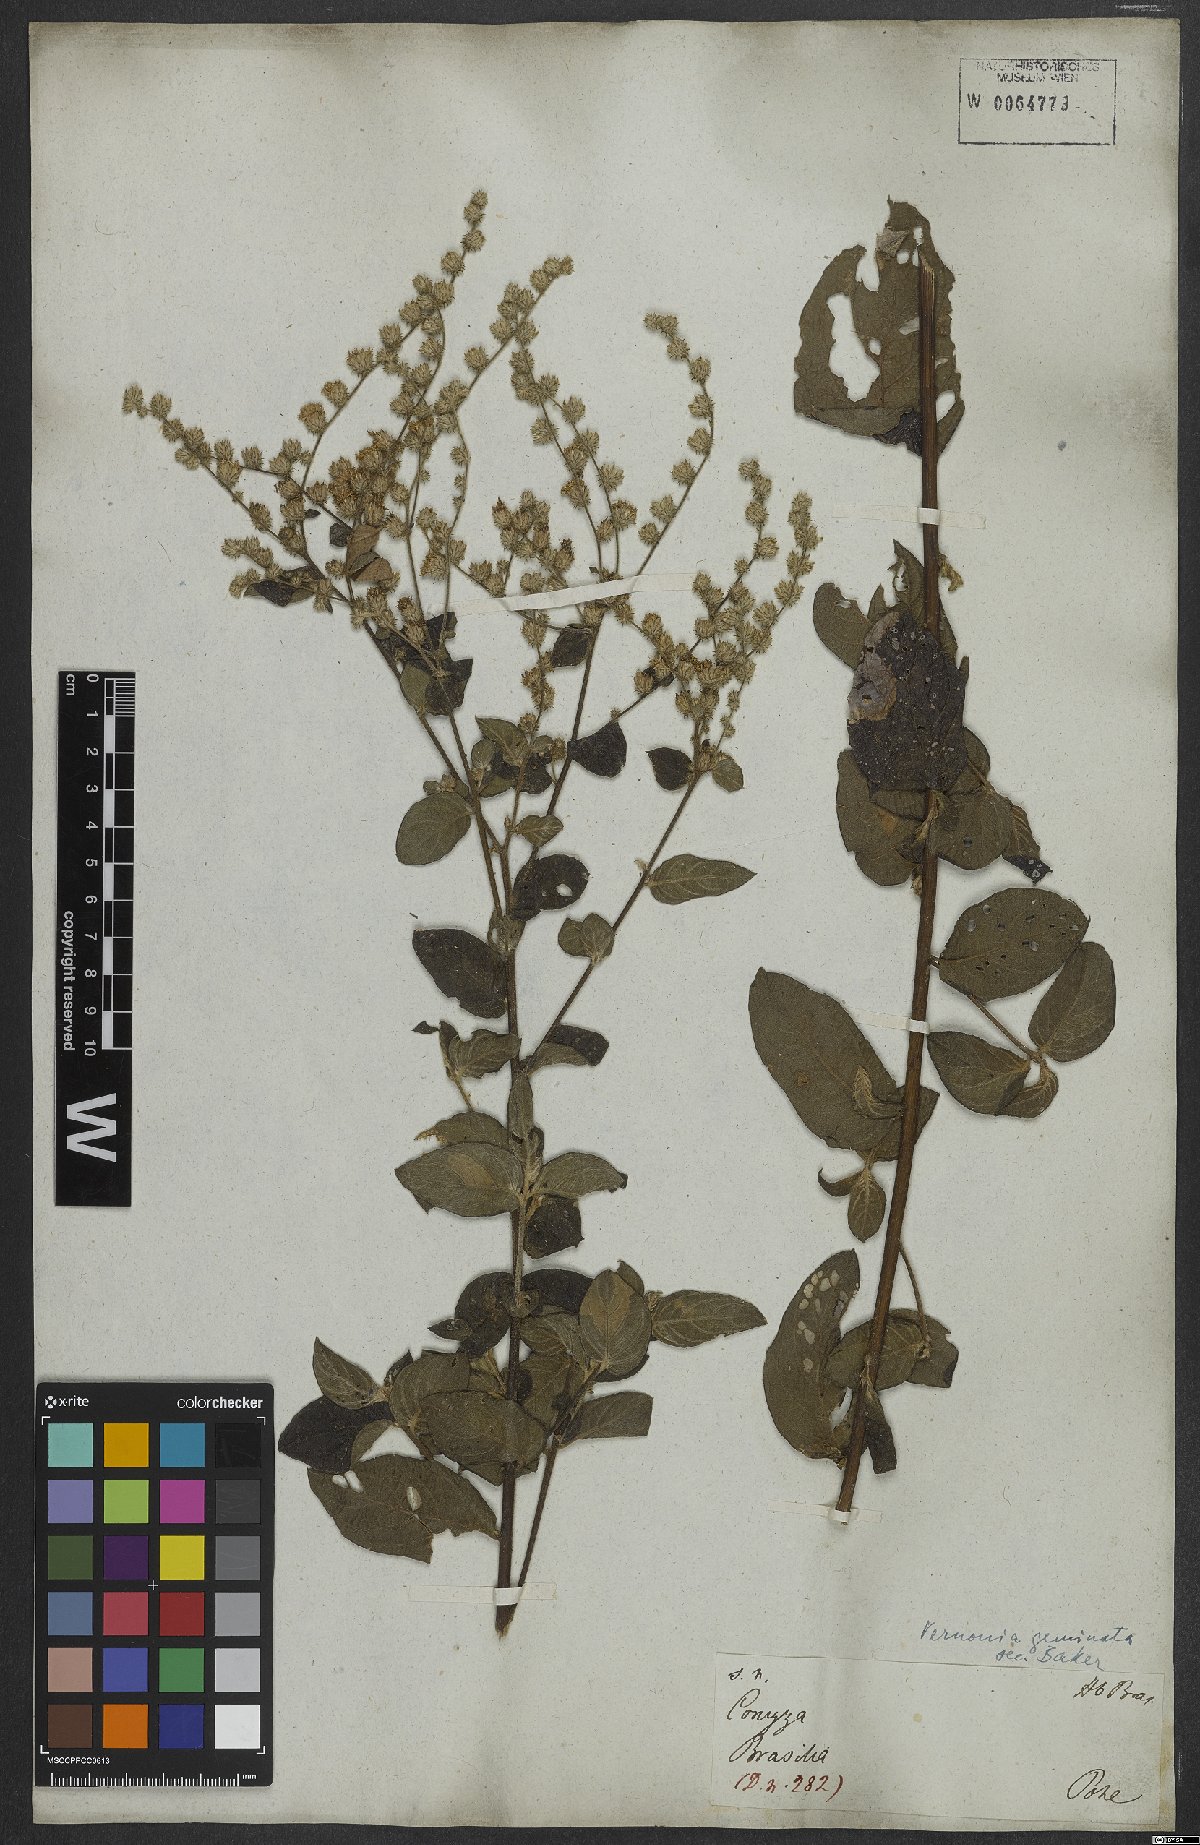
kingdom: Plantae
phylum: Tracheophyta
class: Magnoliopsida
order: Asterales
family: Asteraceae
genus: Lepidaploa
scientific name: Lepidaploa subsquarrosa
